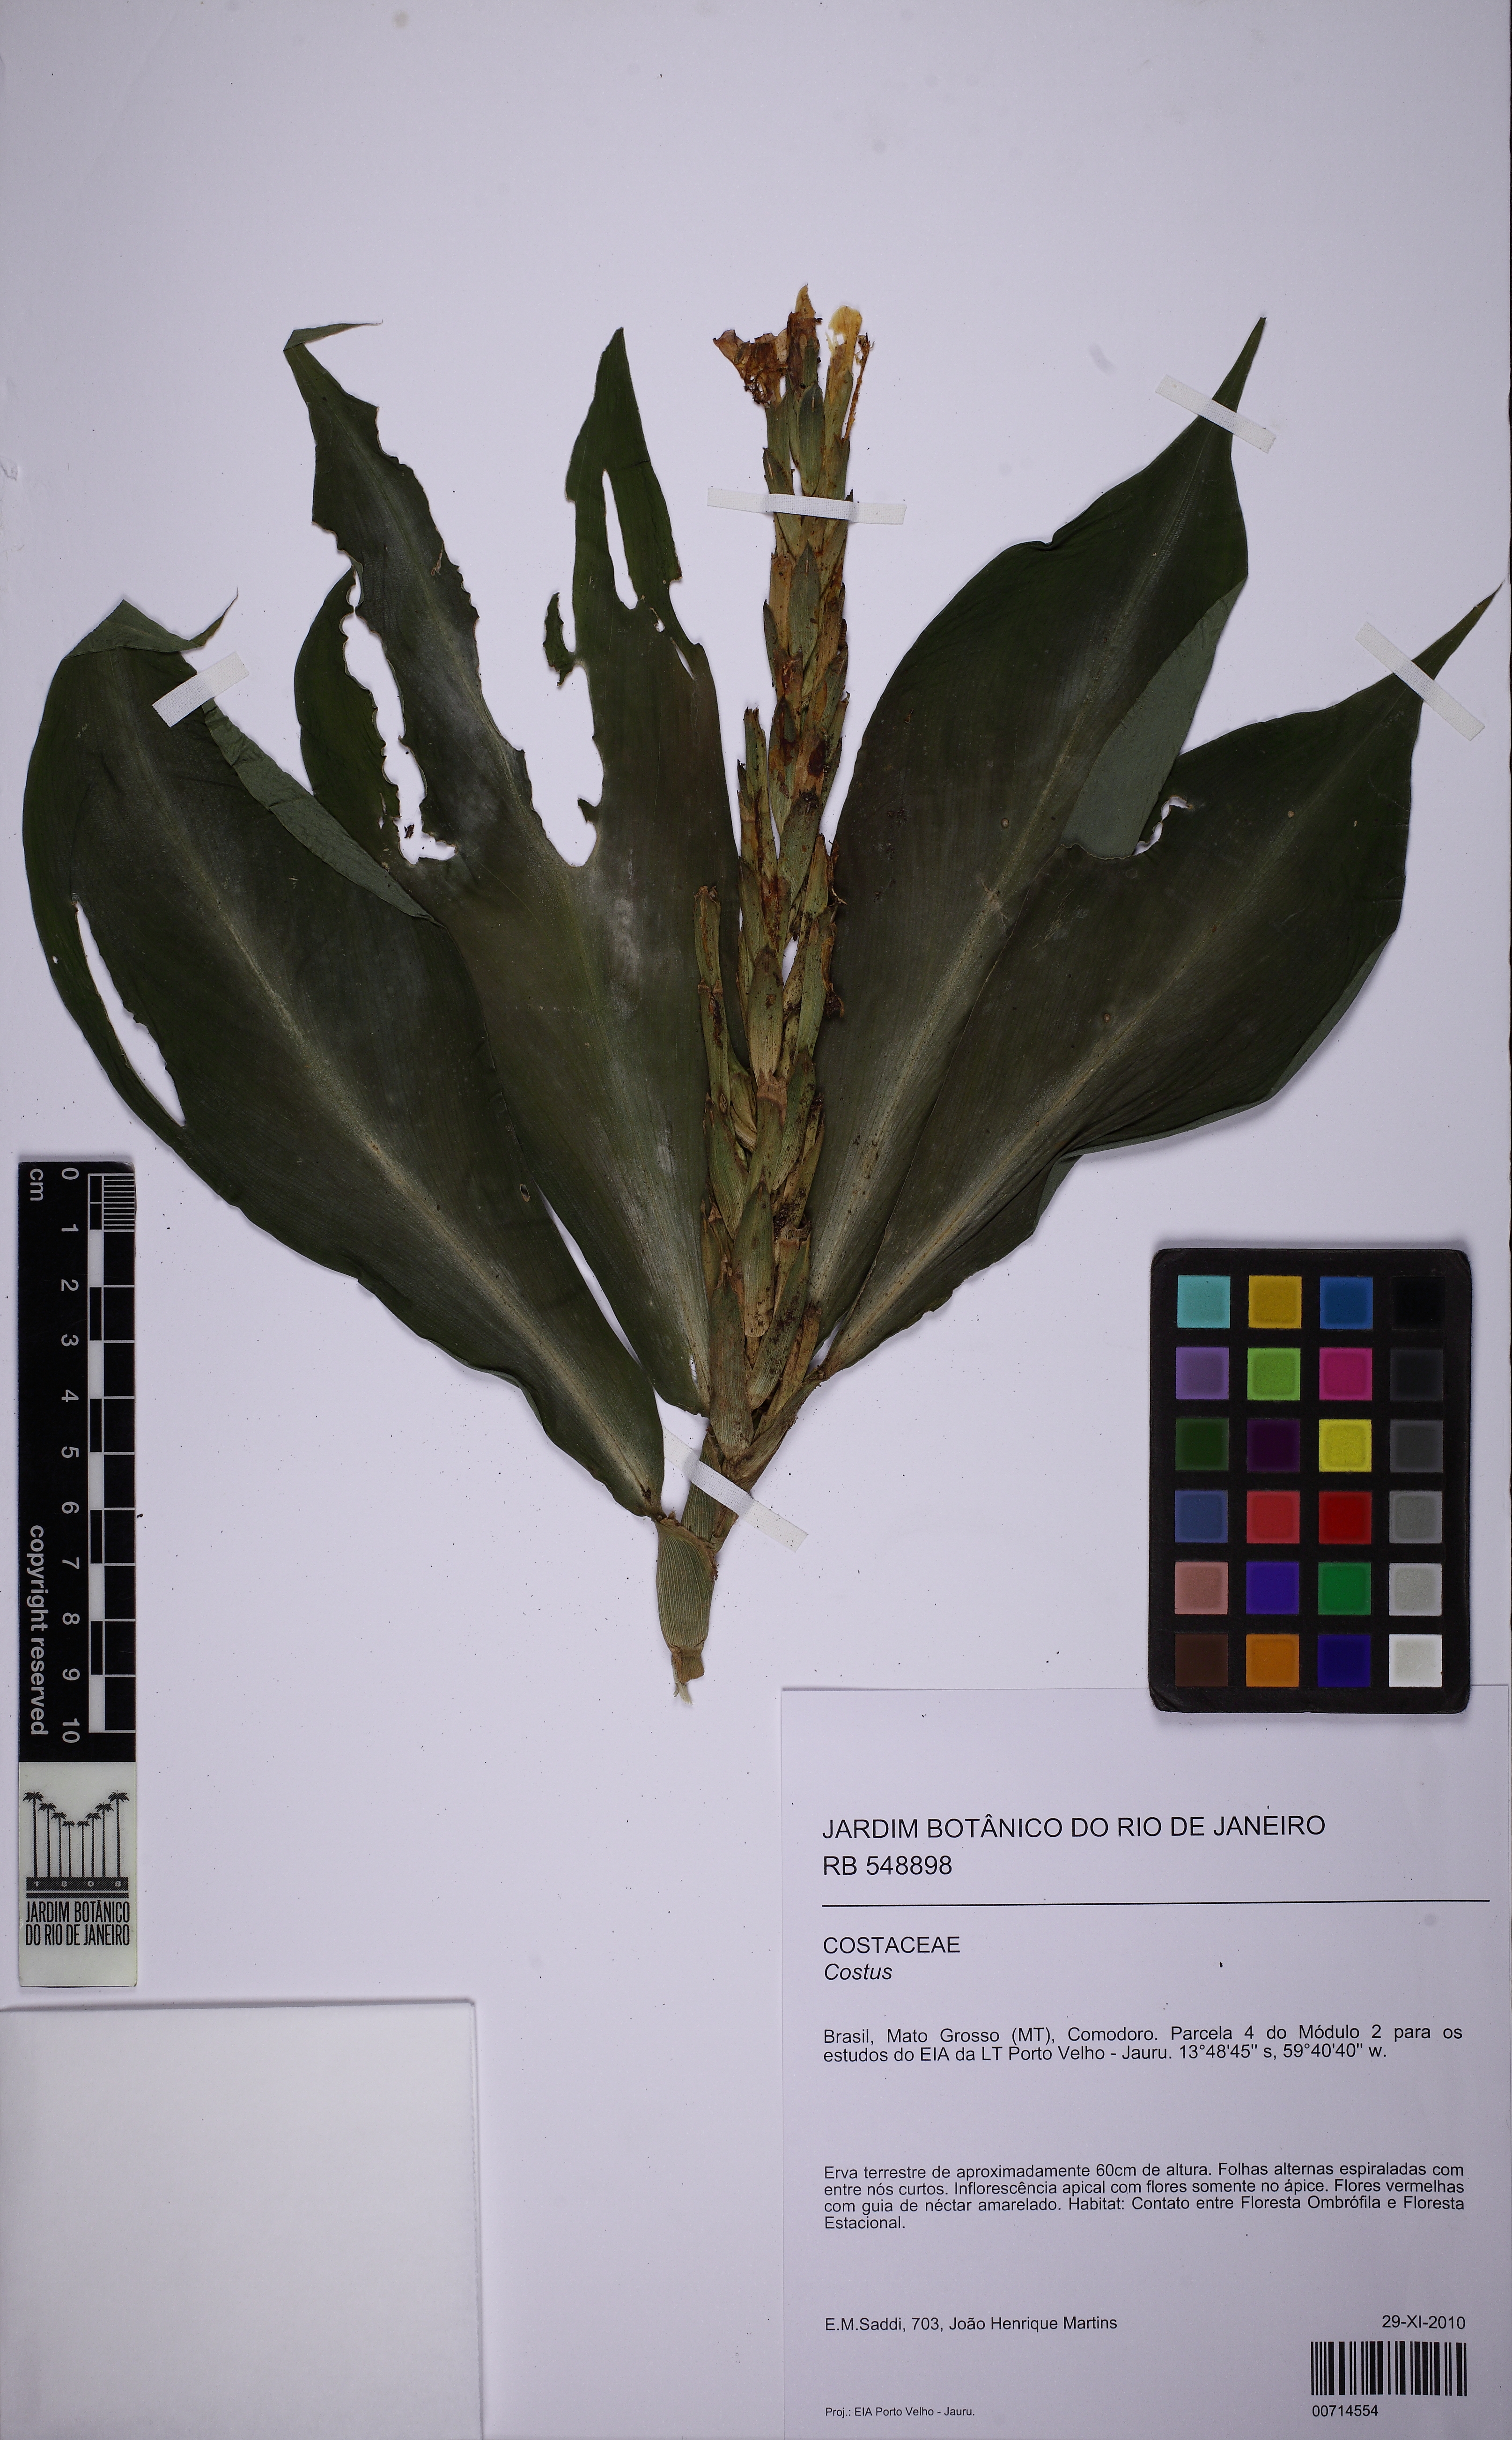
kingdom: Plantae
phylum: Tracheophyta
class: Liliopsida
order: Zingiberales
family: Costaceae
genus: Chamaecostus
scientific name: Chamaecostus lanceolatus
